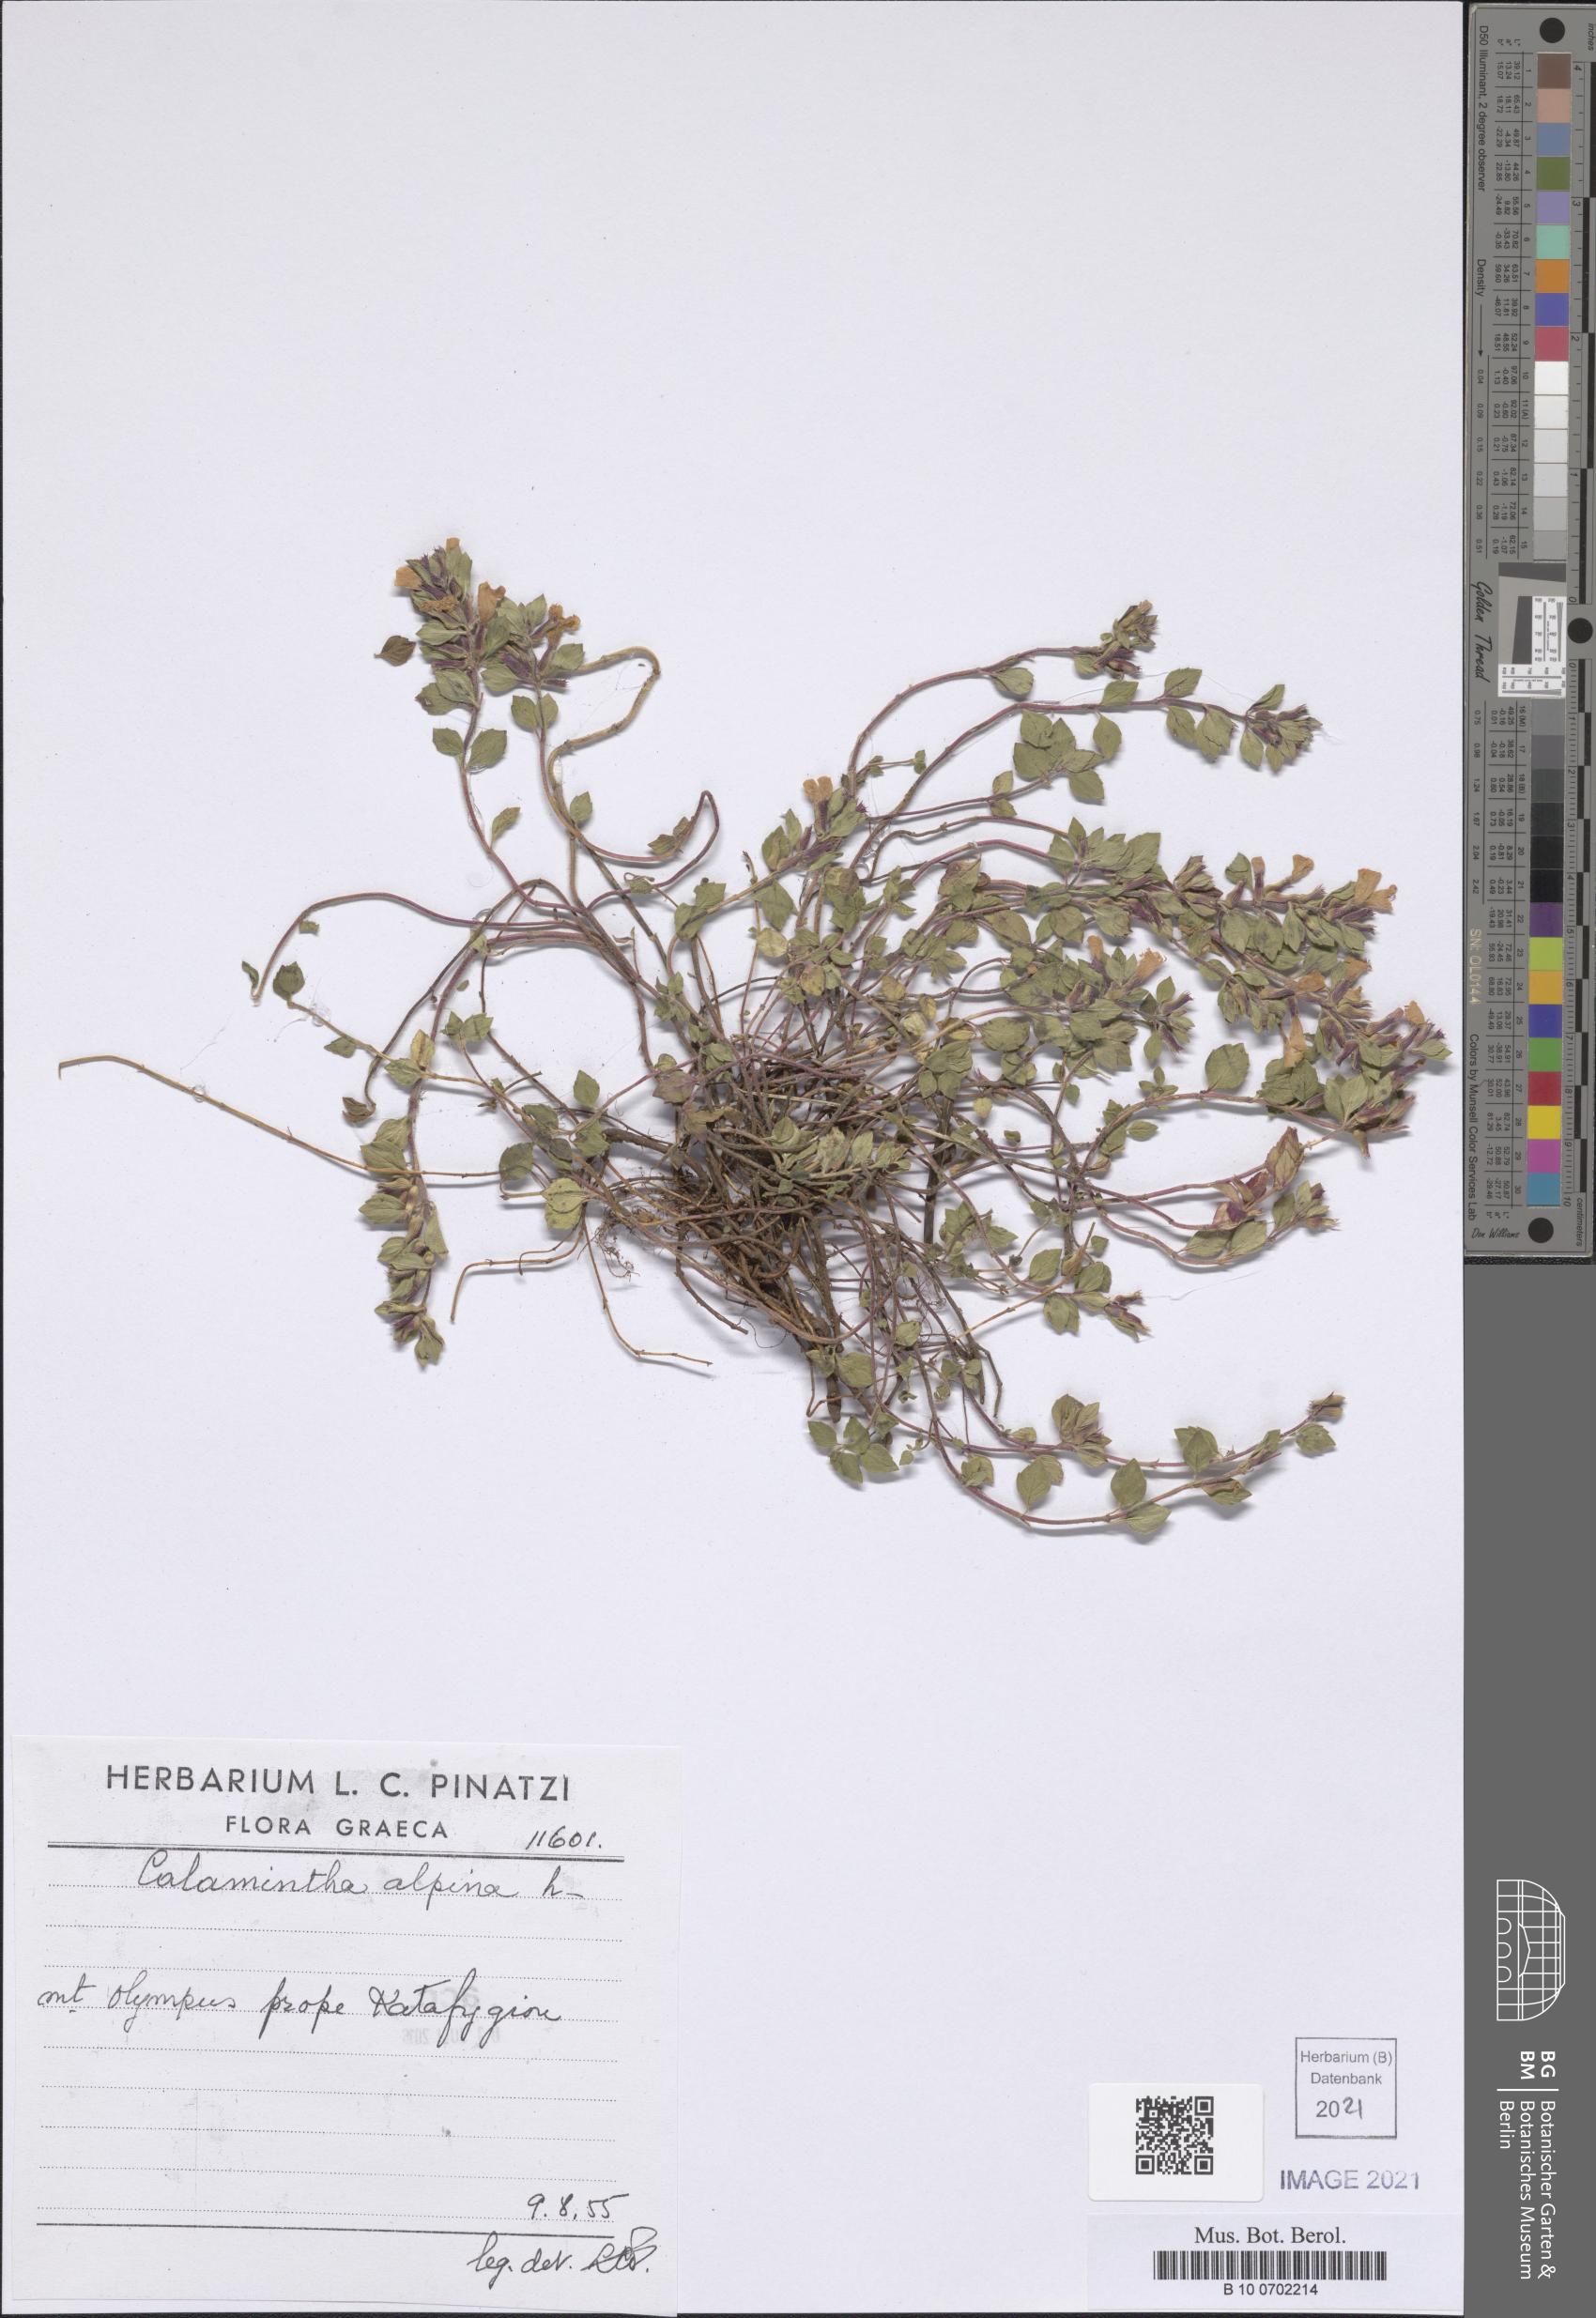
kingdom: Plantae
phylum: Tracheophyta
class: Magnoliopsida
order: Lamiales
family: Lamiaceae
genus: Clinopodium
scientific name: Clinopodium alpinum
